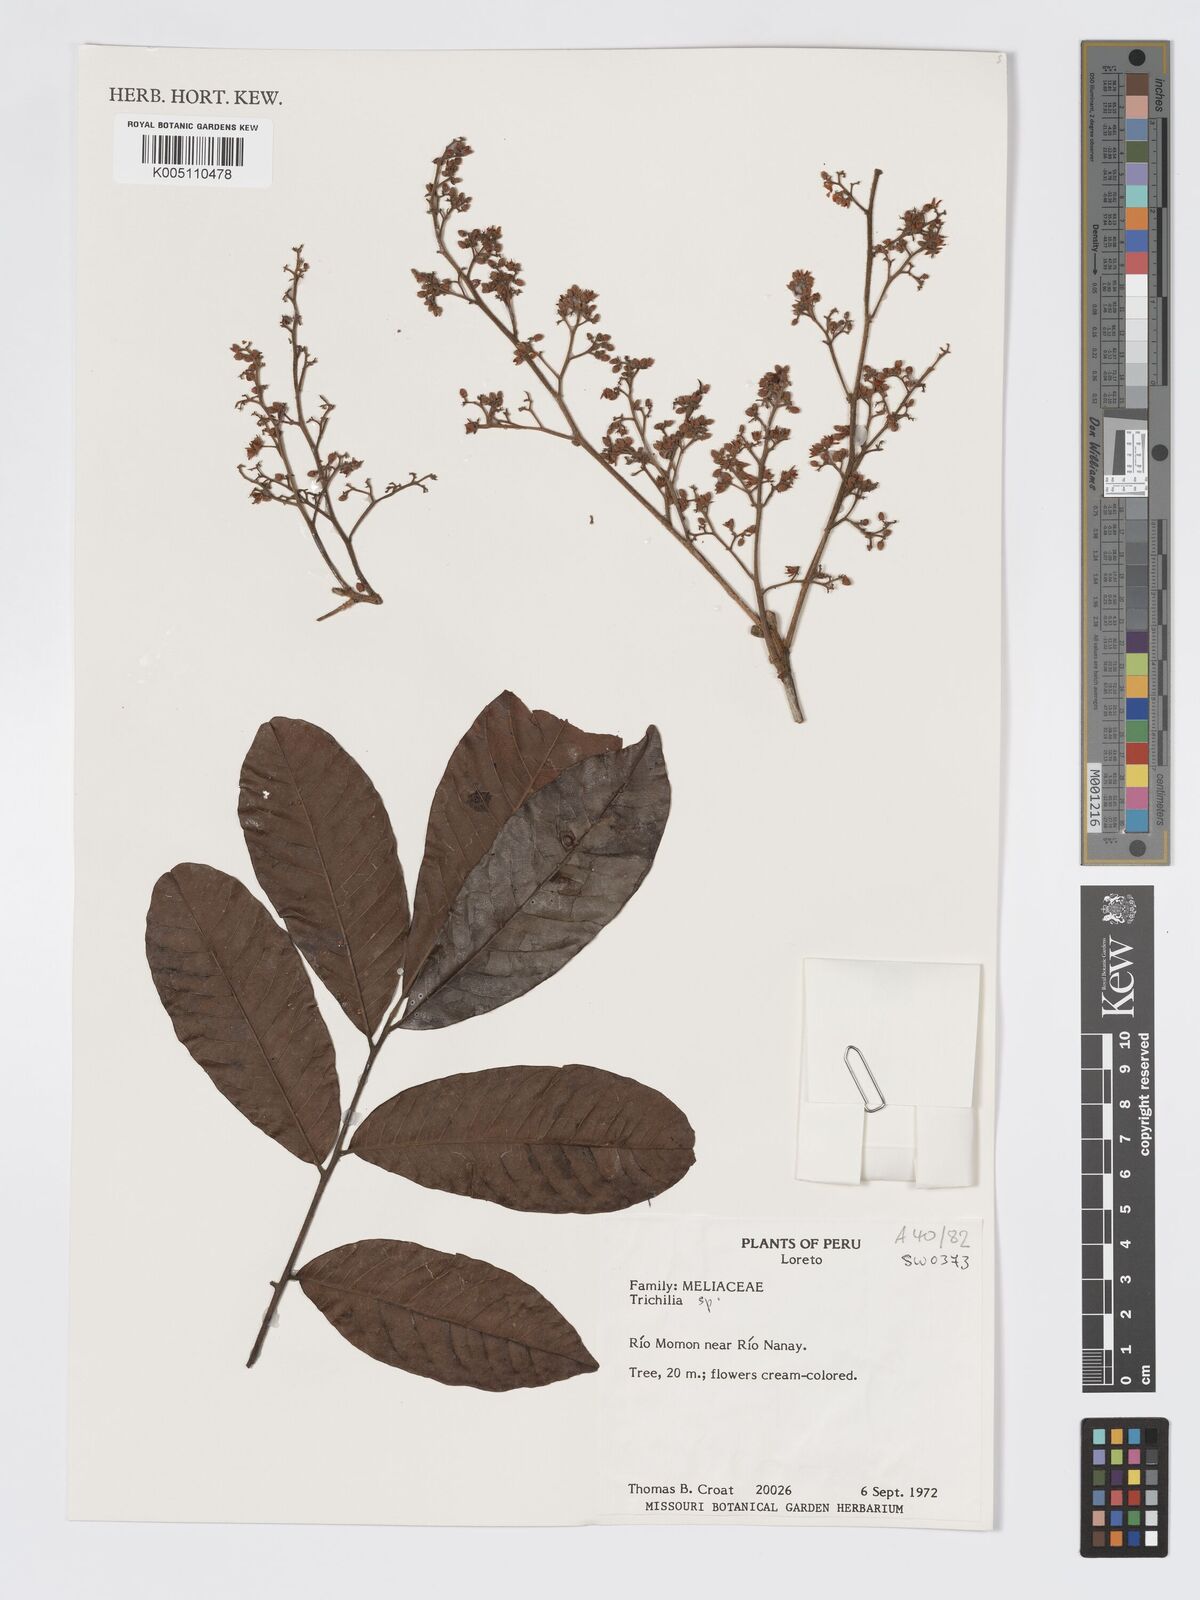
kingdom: Plantae
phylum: Tracheophyta
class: Magnoliopsida
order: Sapindales
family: Meliaceae
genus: Trichilia
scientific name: Trichilia
